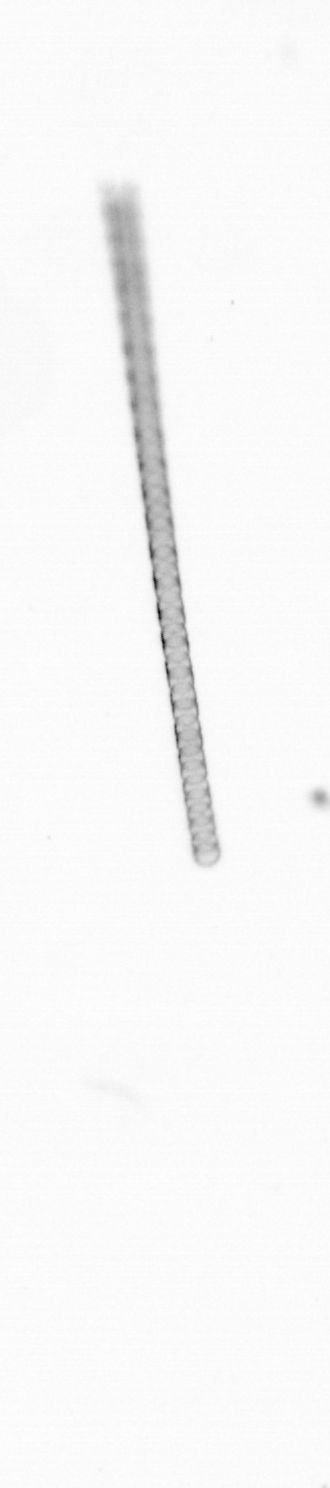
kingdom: Chromista
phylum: Ochrophyta
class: Bacillariophyceae
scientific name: Bacillariophyceae
